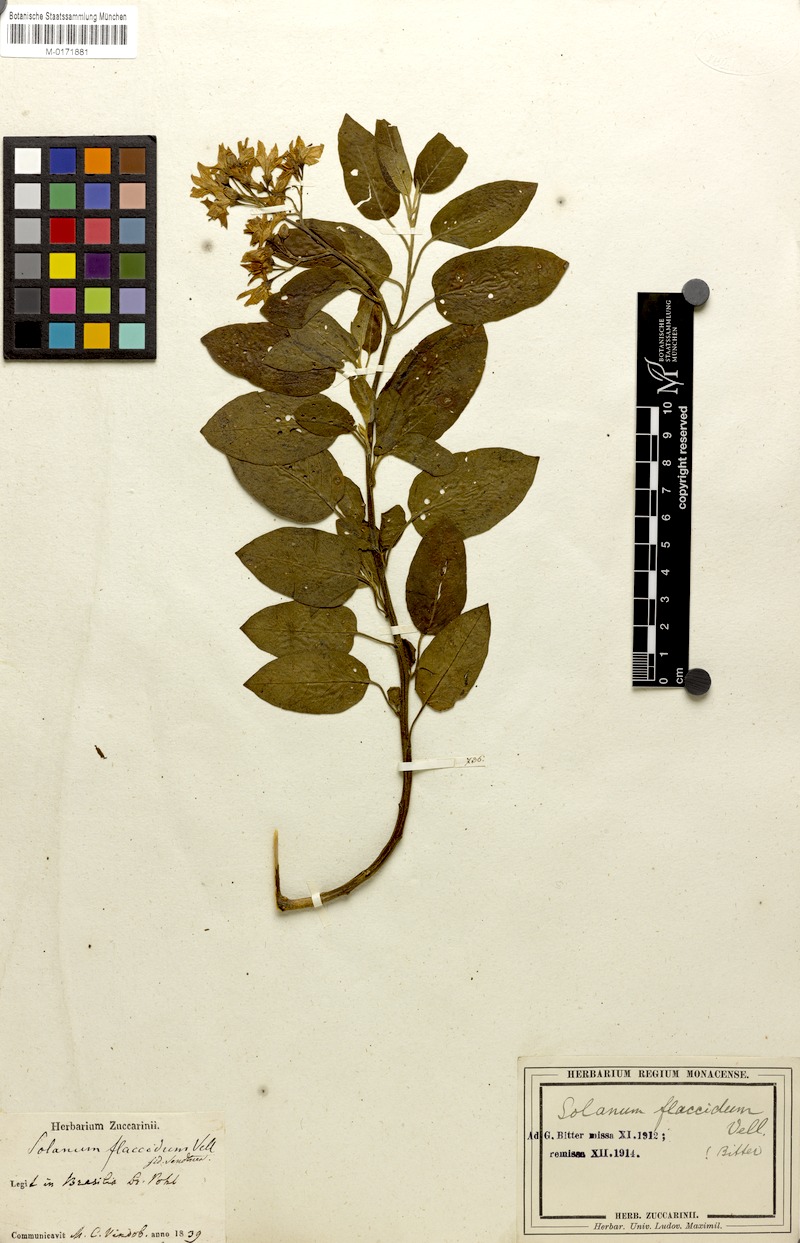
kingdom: Plantae
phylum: Tracheophyta
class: Magnoliopsida
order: Solanales
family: Solanaceae
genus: Solanum
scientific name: Solanum flaccidum
